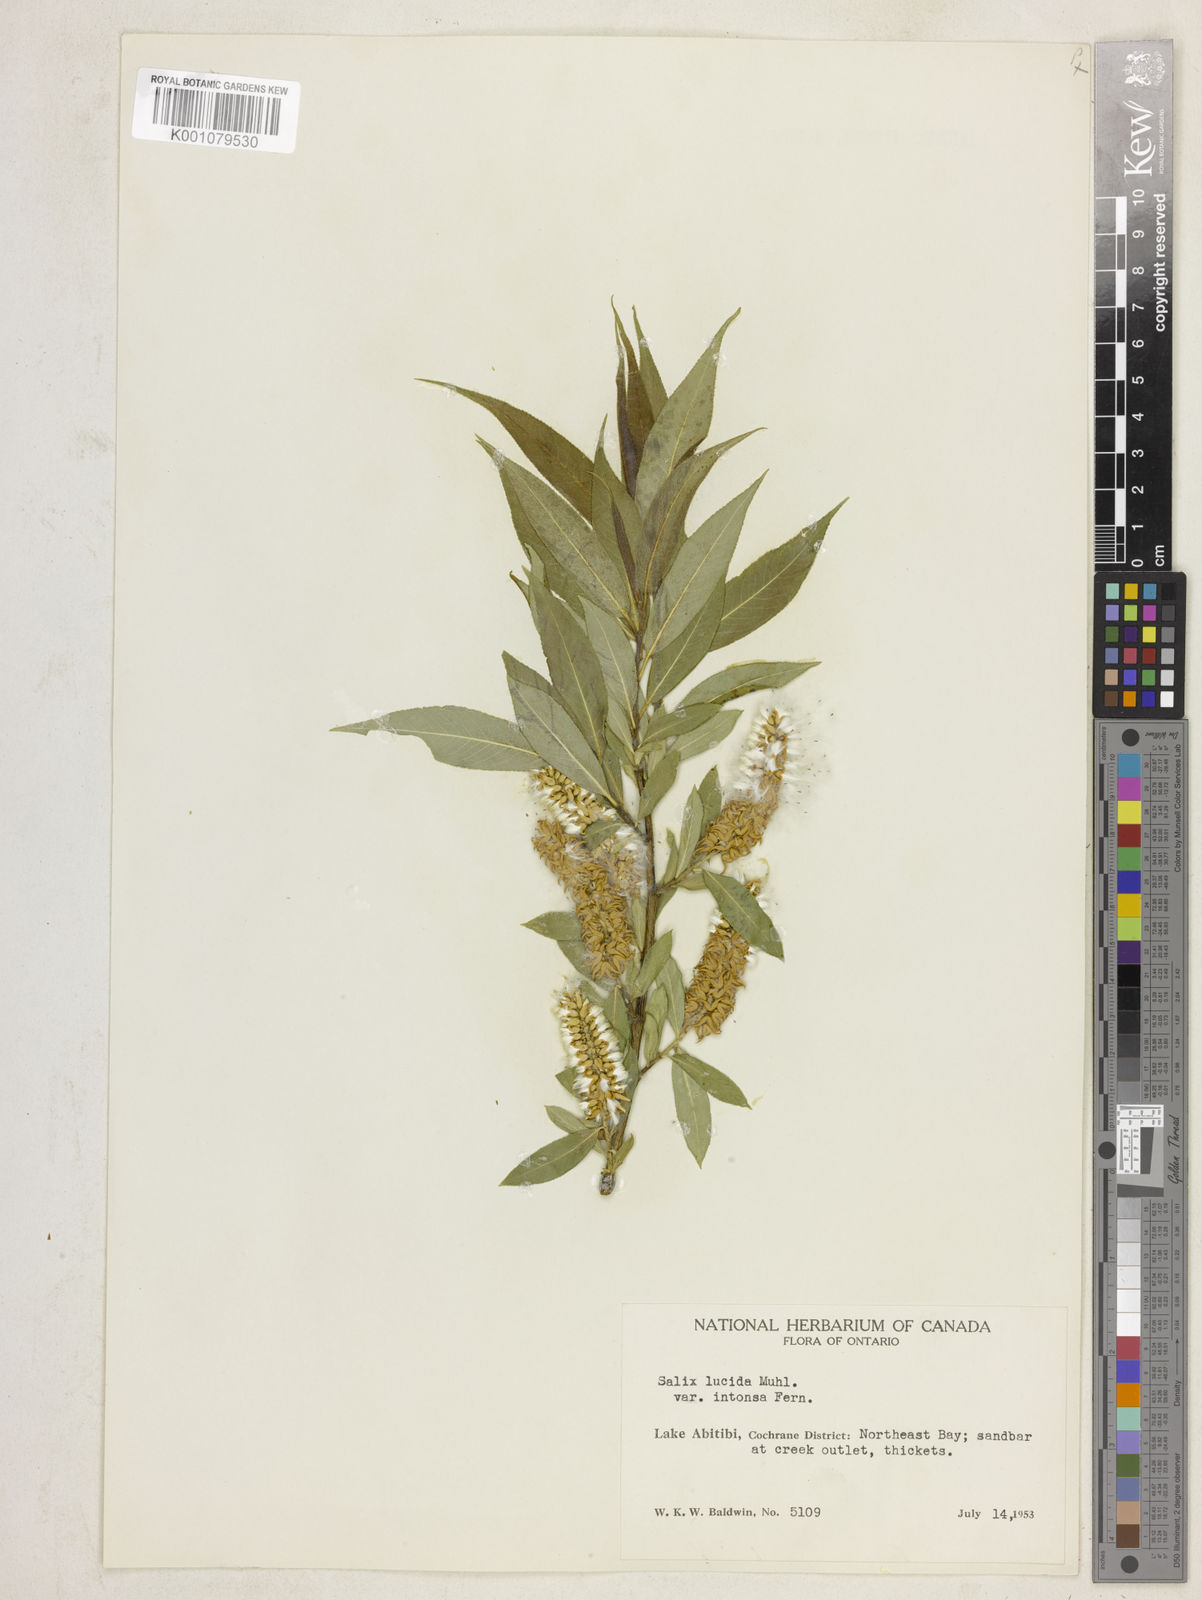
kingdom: Plantae
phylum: Tracheophyta
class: Magnoliopsida
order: Malpighiales
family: Salicaceae
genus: Salix
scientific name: Salix lucida
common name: Shining willow
